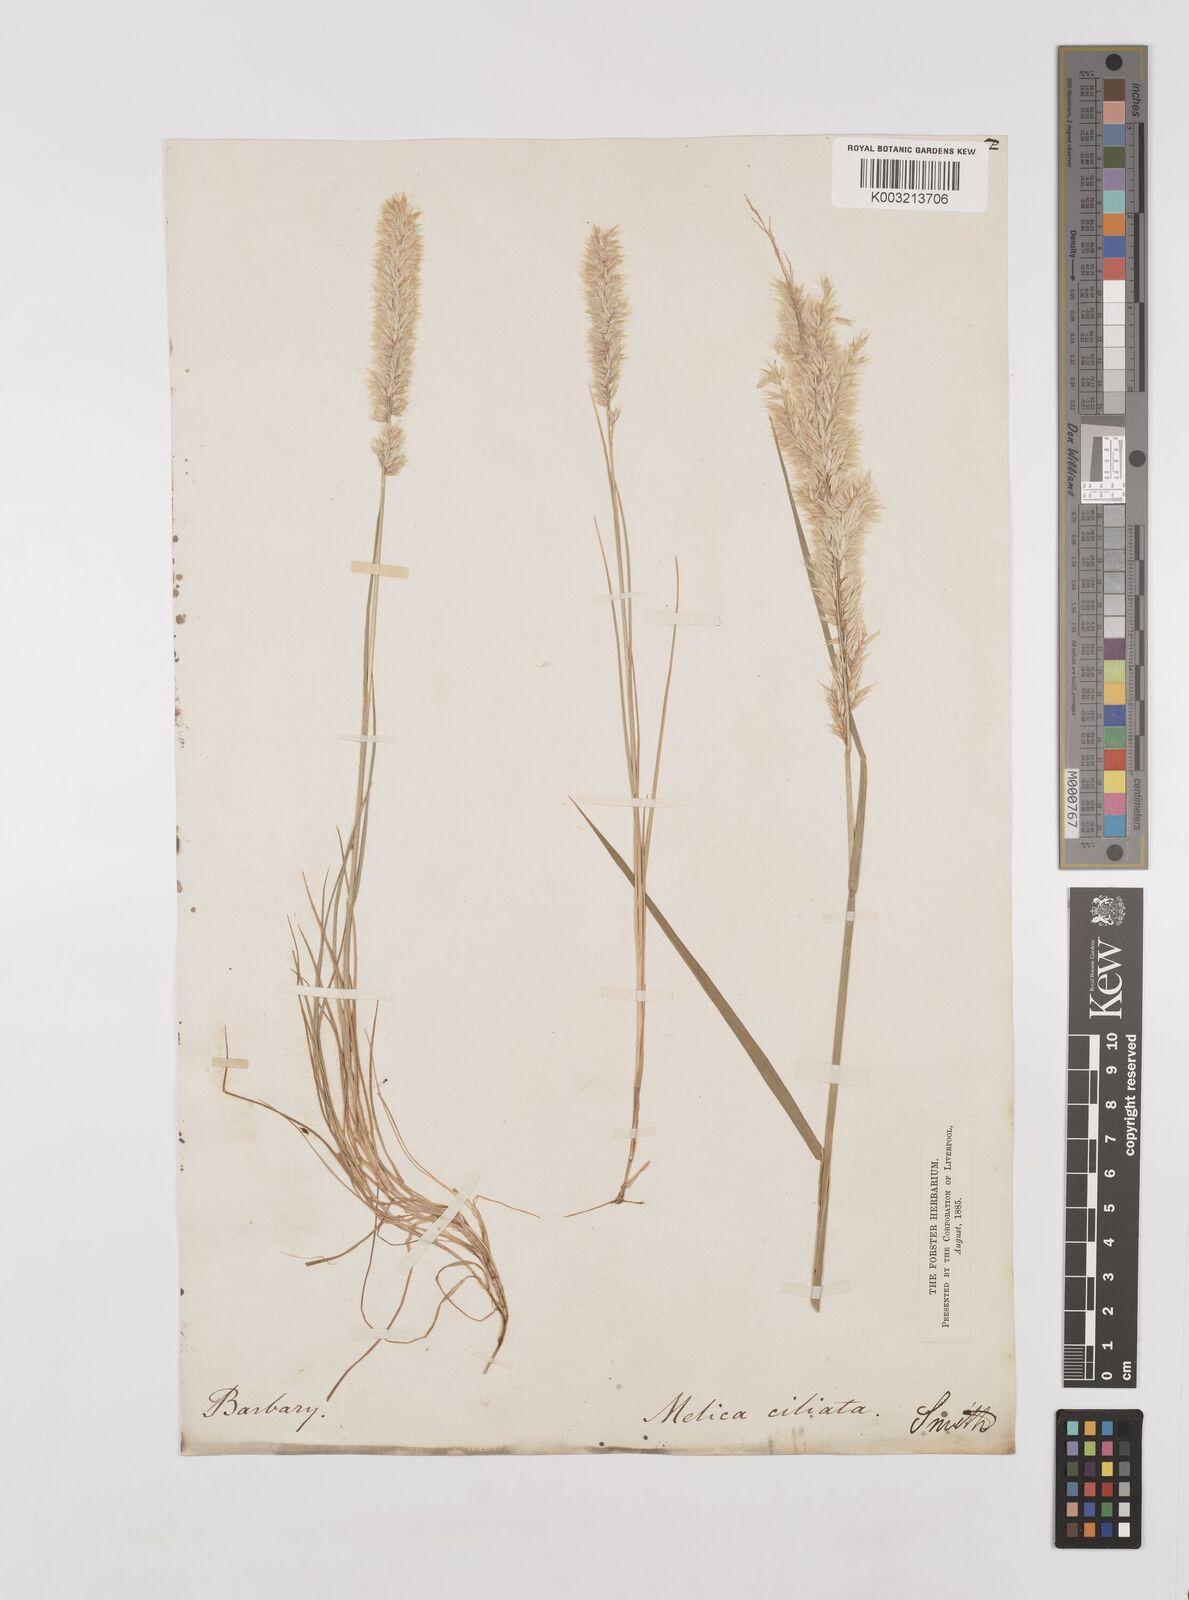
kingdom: Plantae
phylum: Tracheophyta
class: Liliopsida
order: Poales
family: Poaceae
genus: Melica
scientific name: Melica violacea
